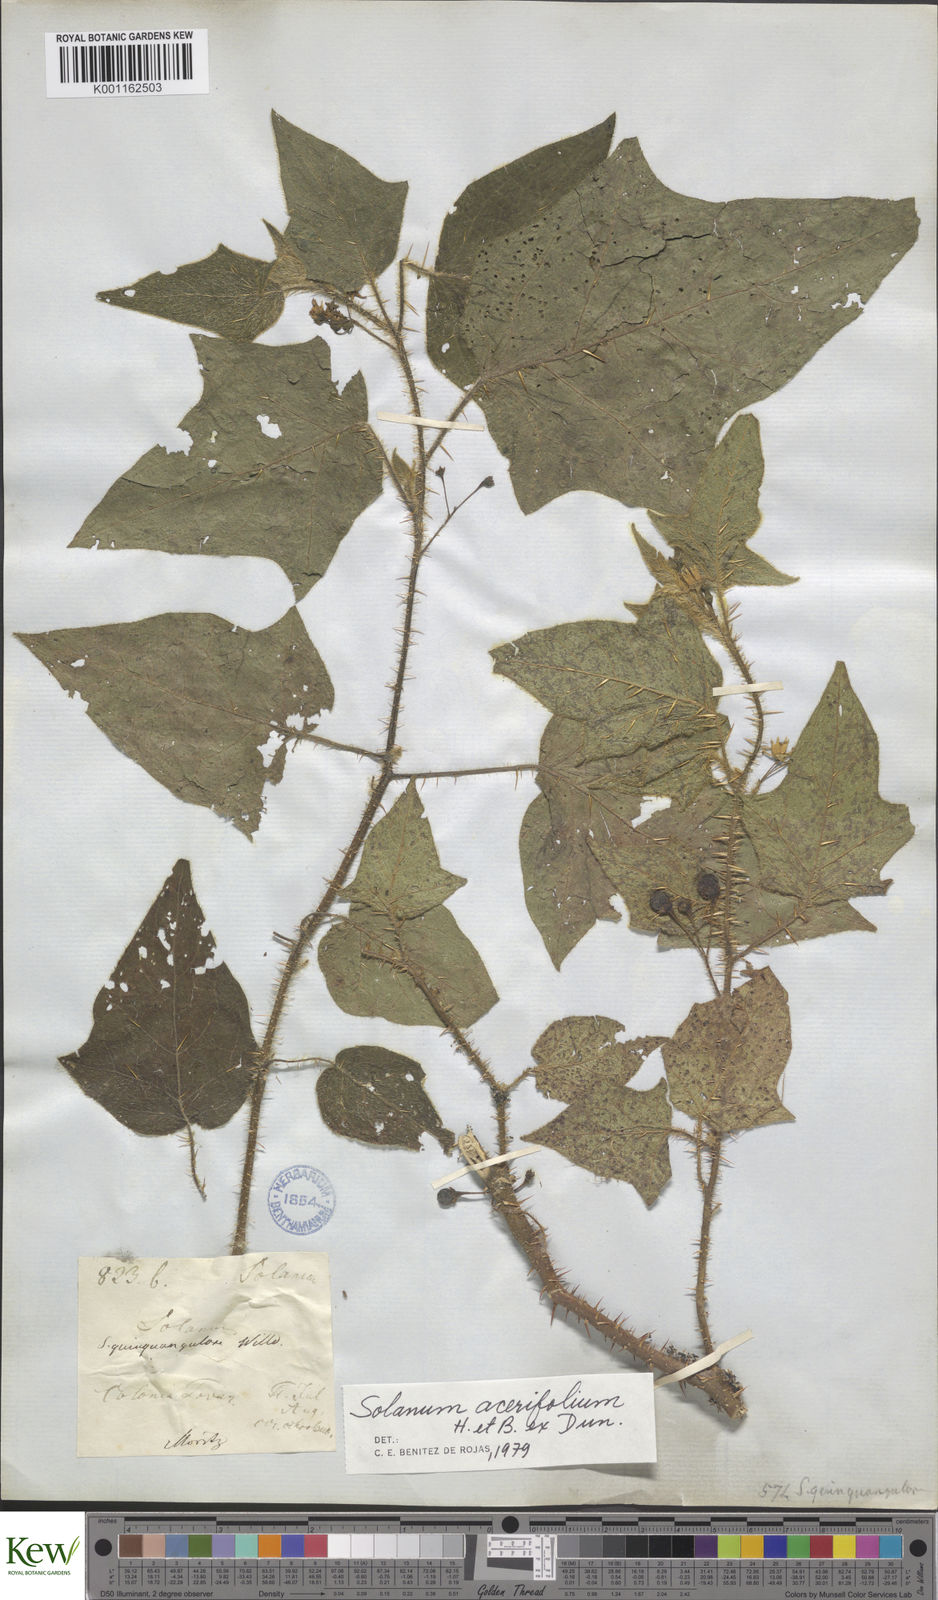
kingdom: Plantae
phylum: Tracheophyta
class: Magnoliopsida
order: Solanales
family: Solanaceae
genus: Solanum
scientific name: Solanum acerifolium
